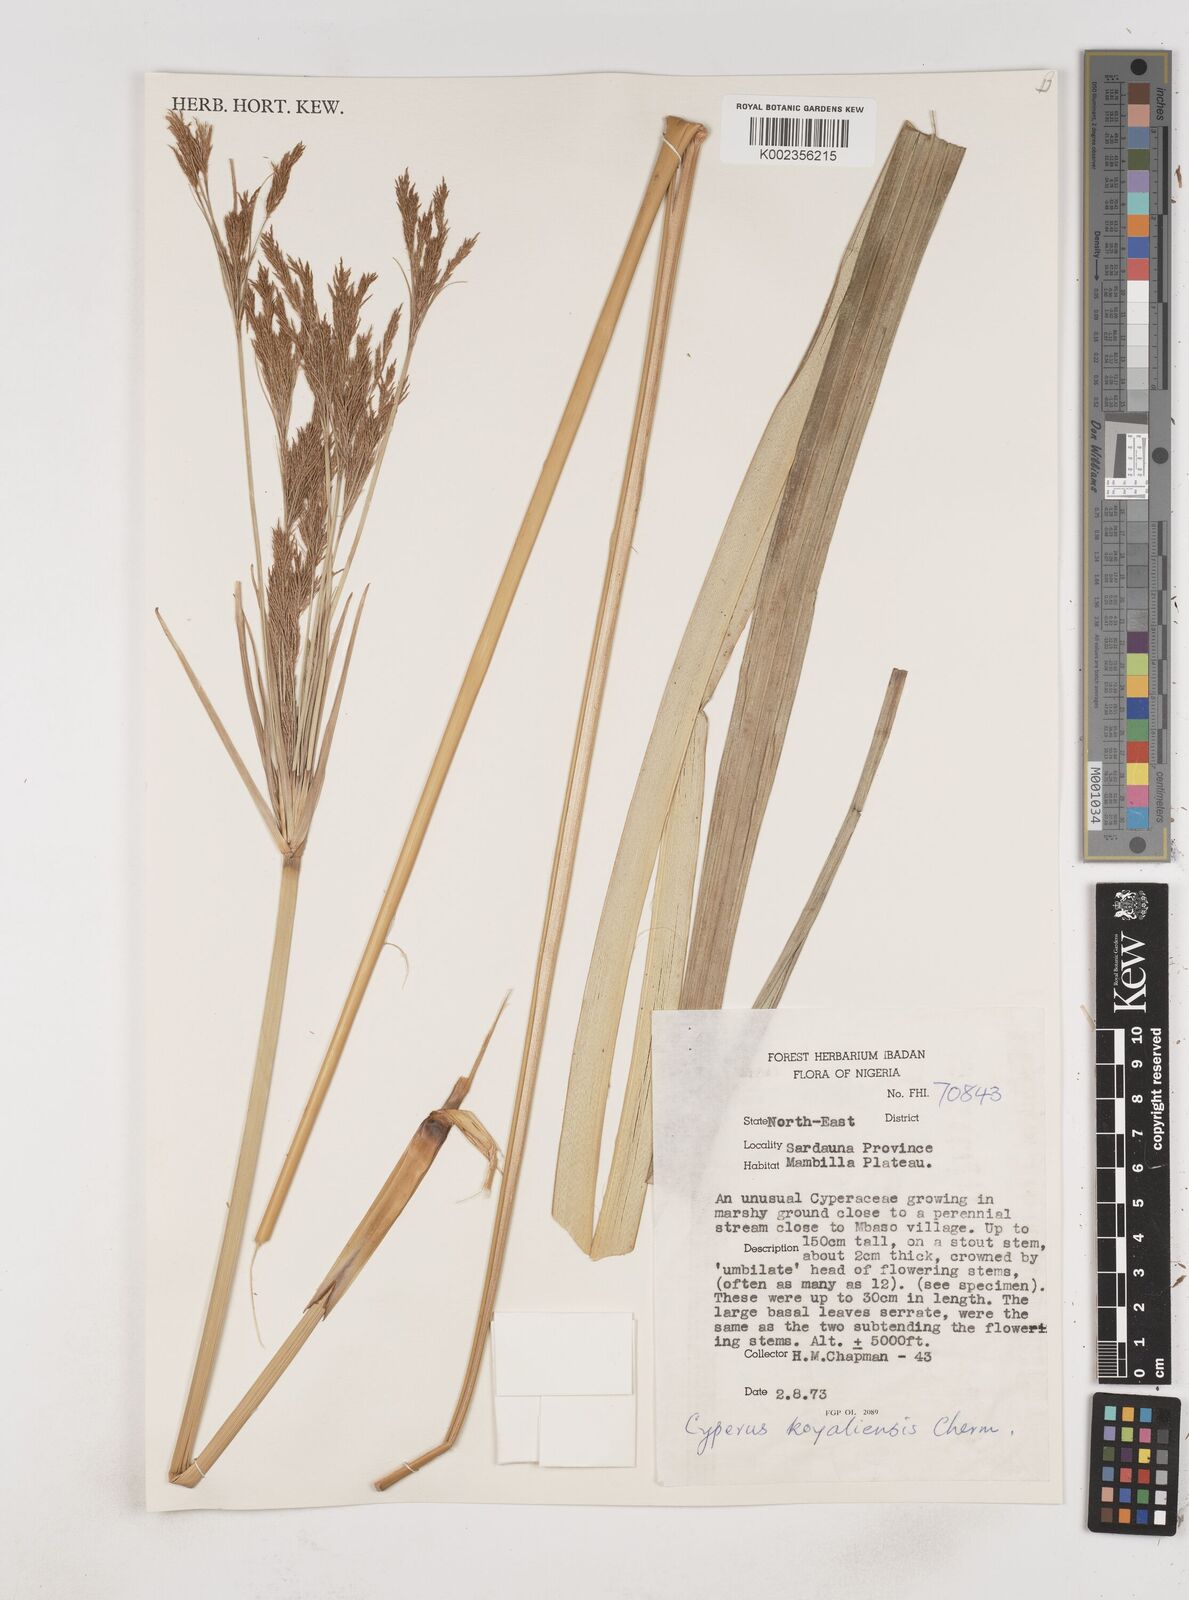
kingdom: Plantae
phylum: Tracheophyta
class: Liliopsida
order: Poales
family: Cyperaceae
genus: Cyperus
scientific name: Cyperus koyaliensis
